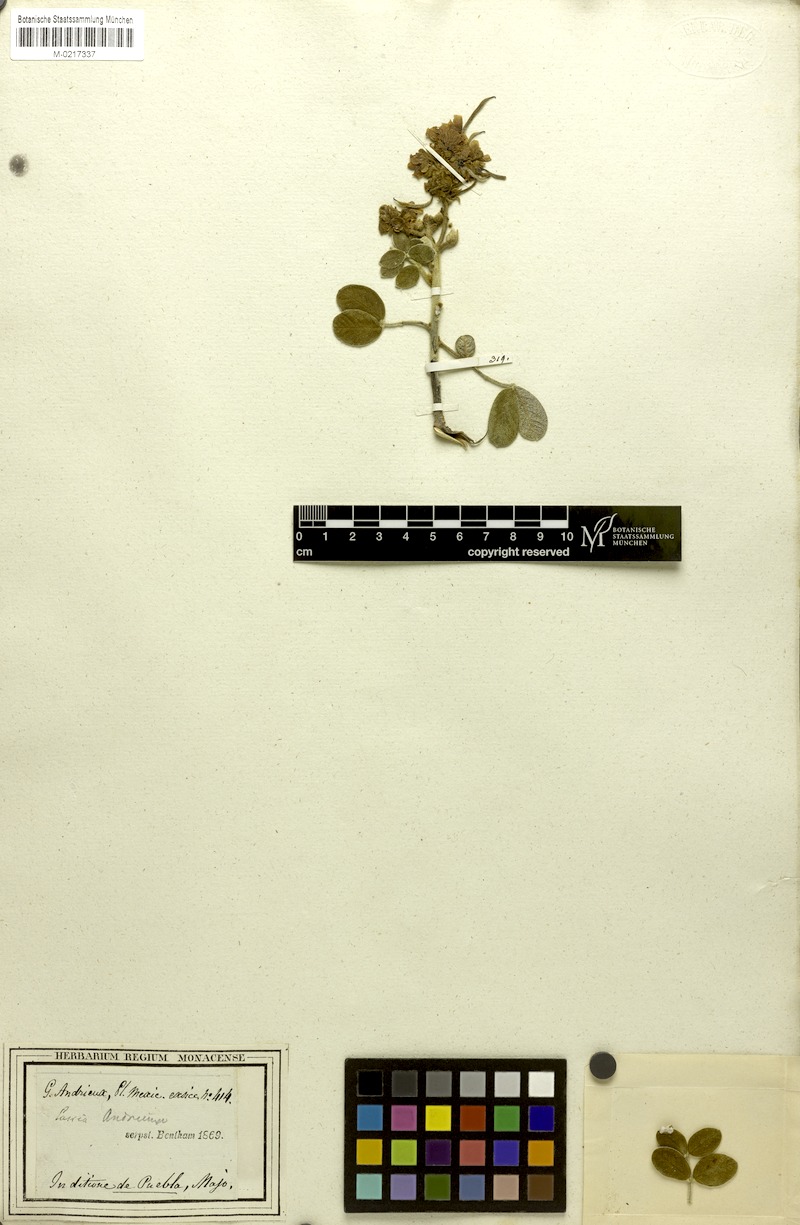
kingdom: Plantae
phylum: Tracheophyta
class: Magnoliopsida
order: Fabales
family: Fabaceae
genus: Senna
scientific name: Senna andrieuxii
